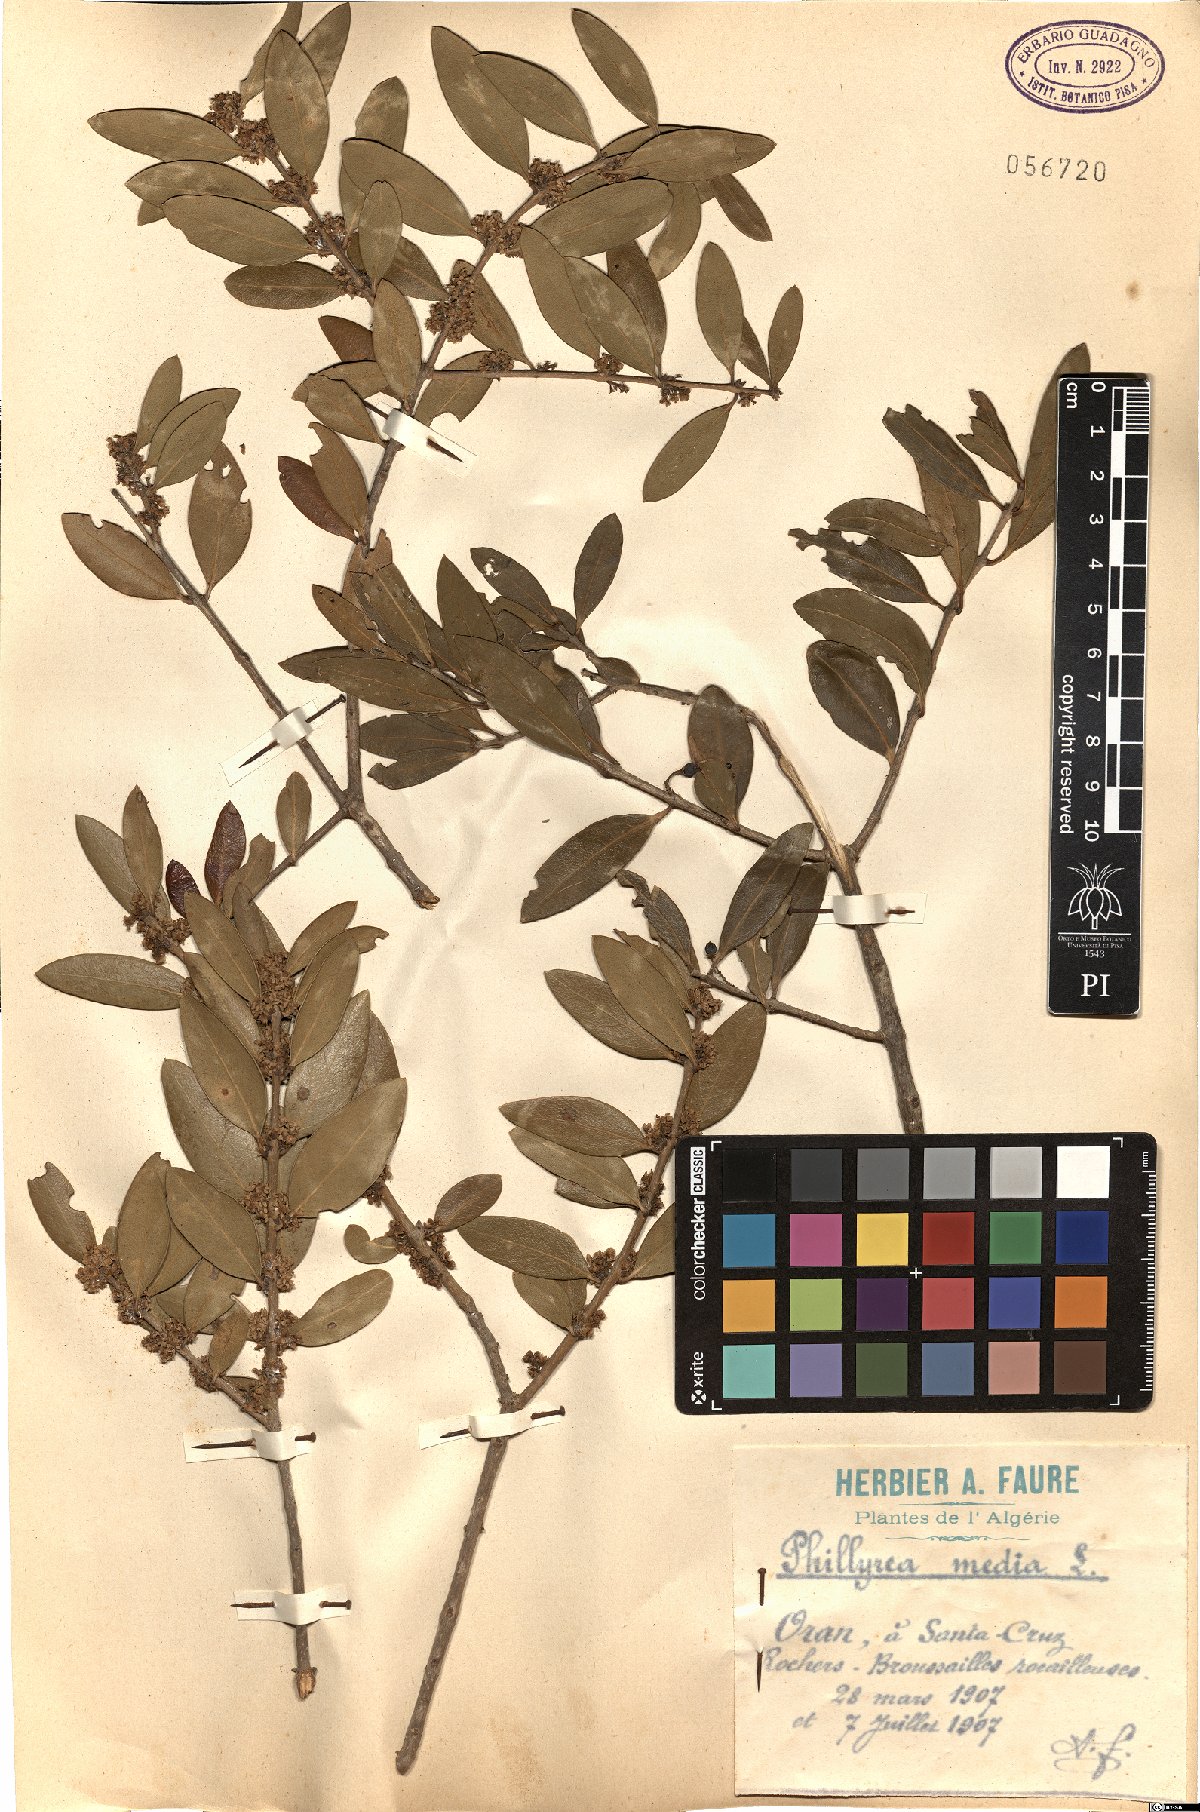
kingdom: Plantae
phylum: Tracheophyta
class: Magnoliopsida
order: Lamiales
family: Oleaceae
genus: Phillyrea
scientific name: Phillyrea latifolia
